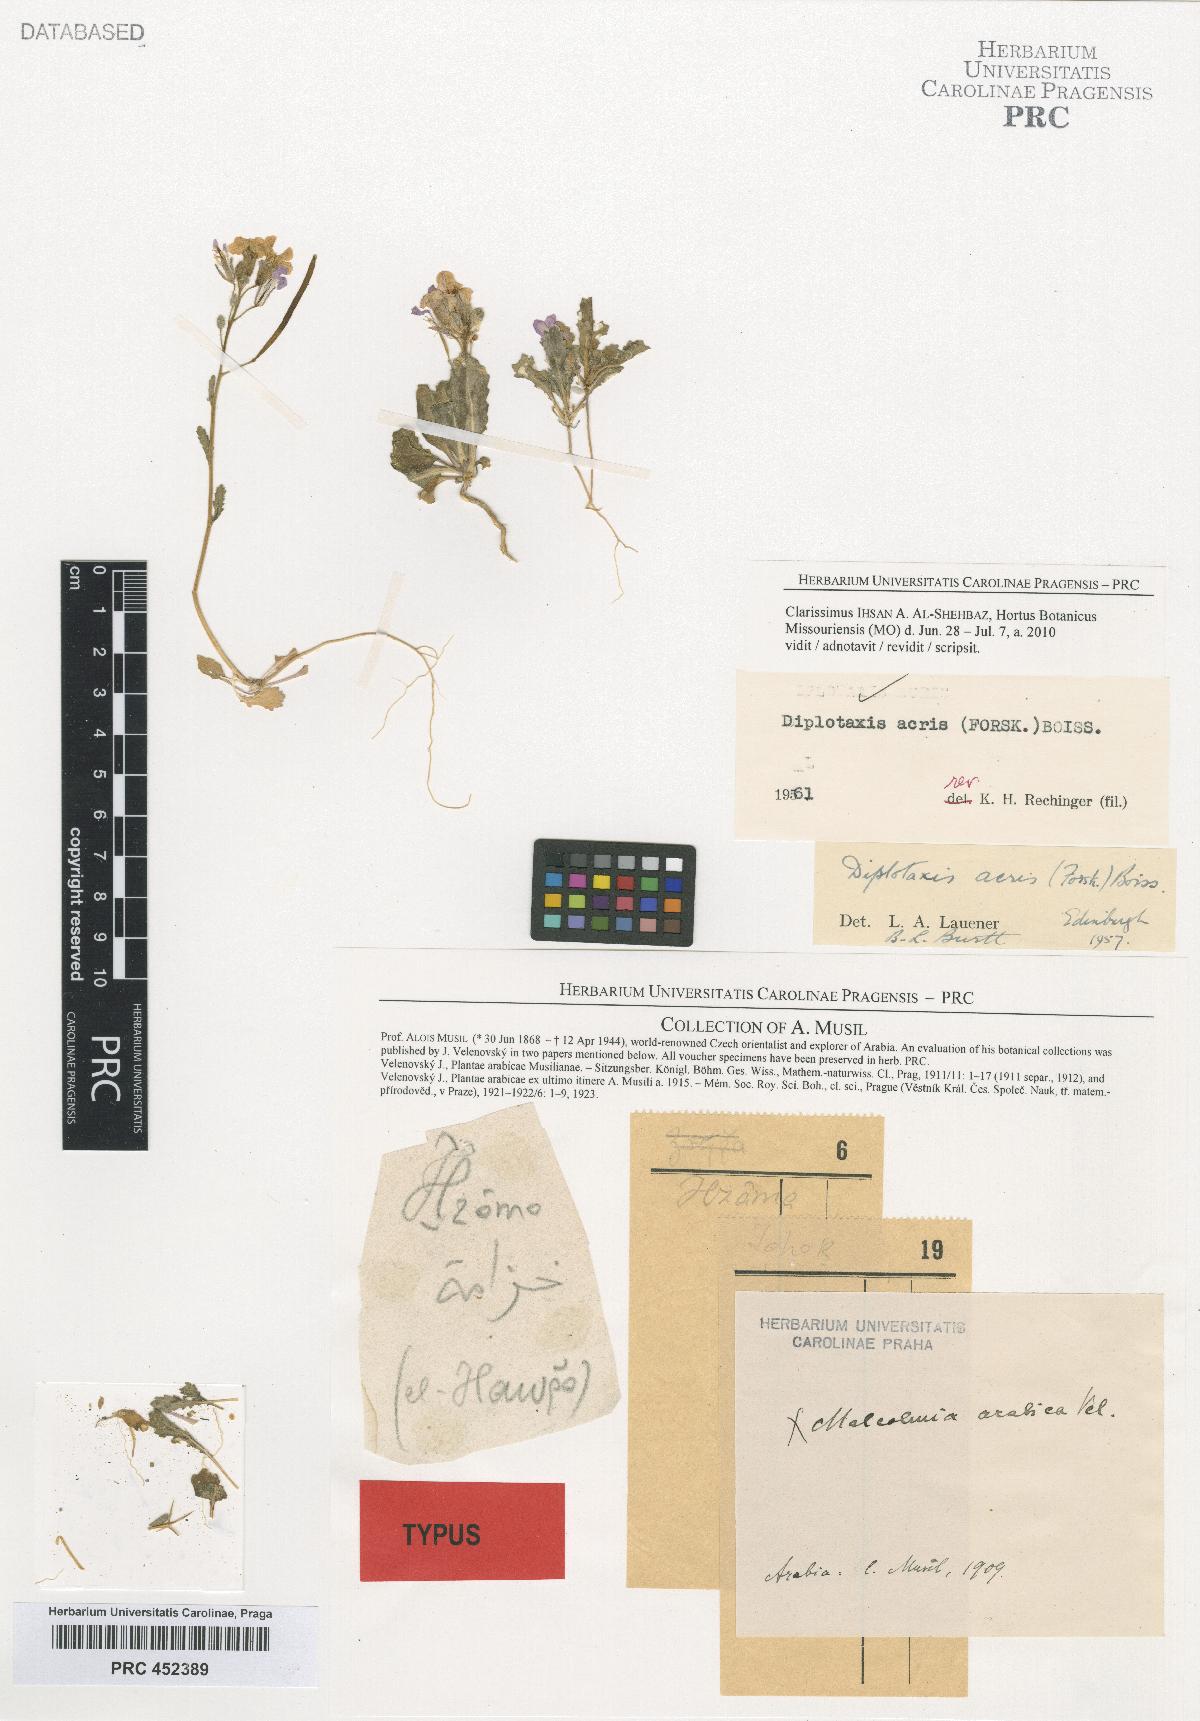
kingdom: Plantae
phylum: Tracheophyta
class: Magnoliopsida
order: Brassicales
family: Brassicaceae
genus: Diplotaxis
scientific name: Diplotaxis acris
